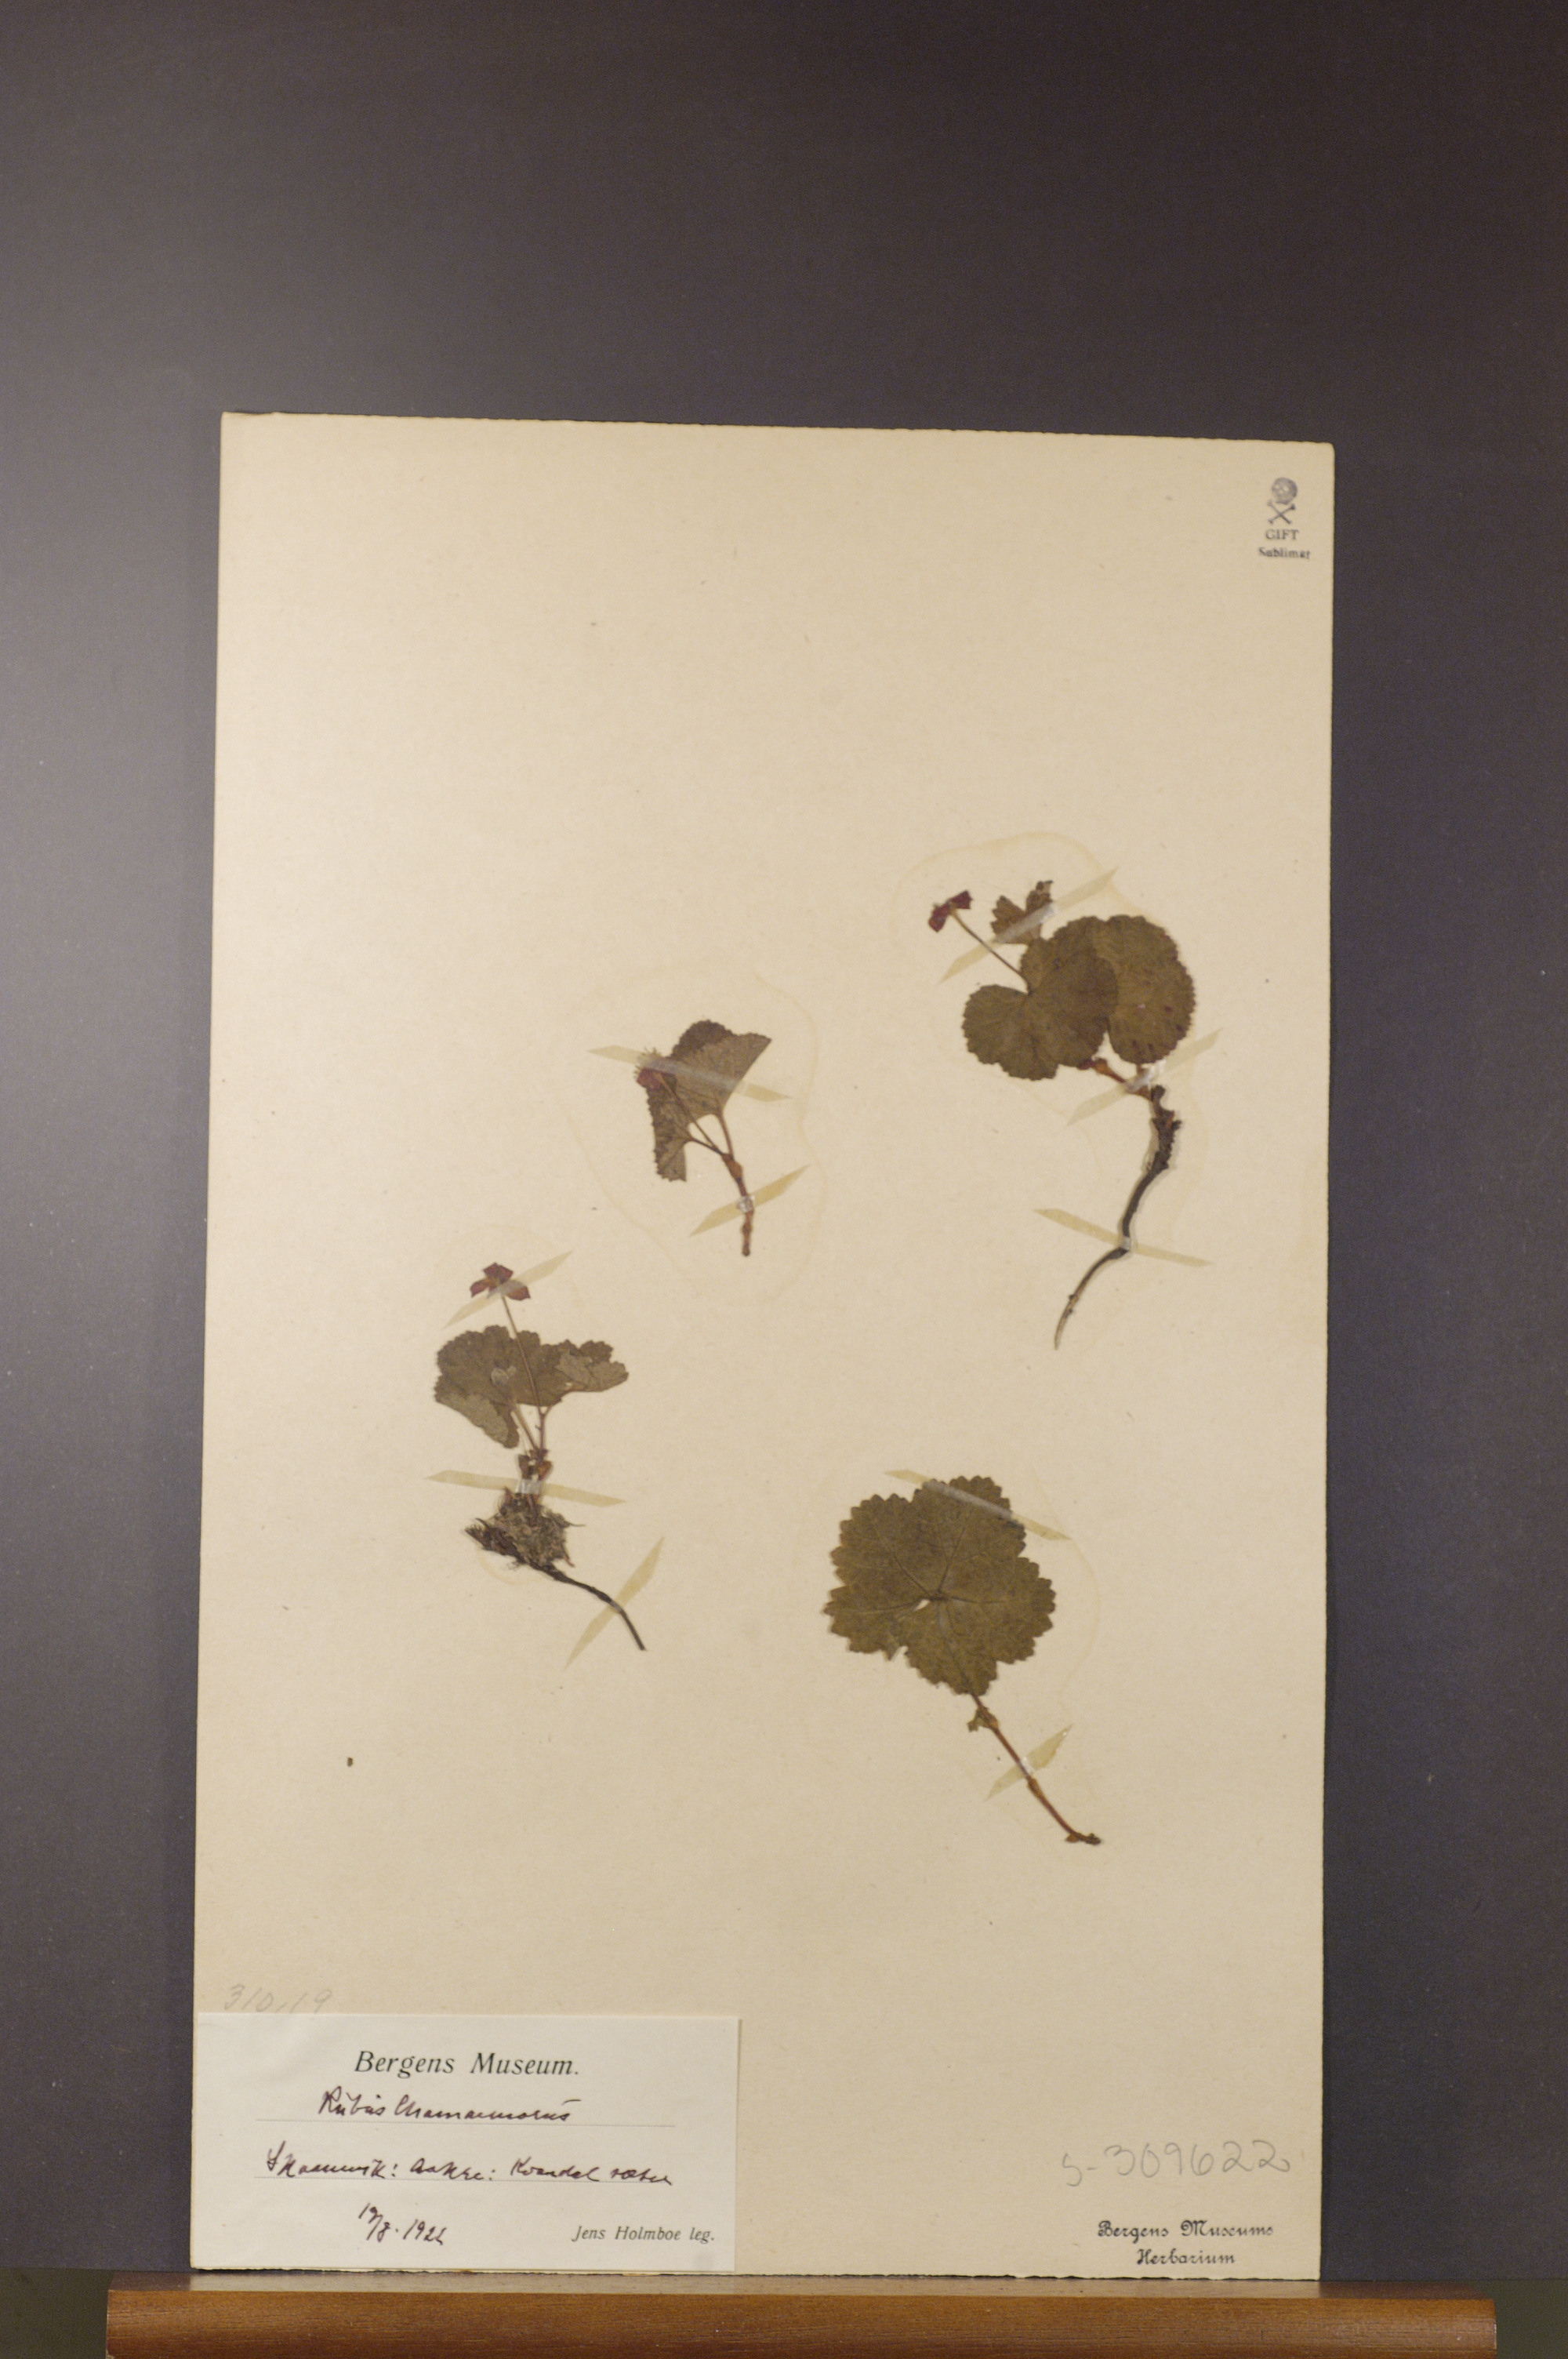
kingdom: Plantae
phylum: Tracheophyta
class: Magnoliopsida
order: Rosales
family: Rosaceae
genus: Rubus
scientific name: Rubus chamaemorus
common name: Cloudberry
